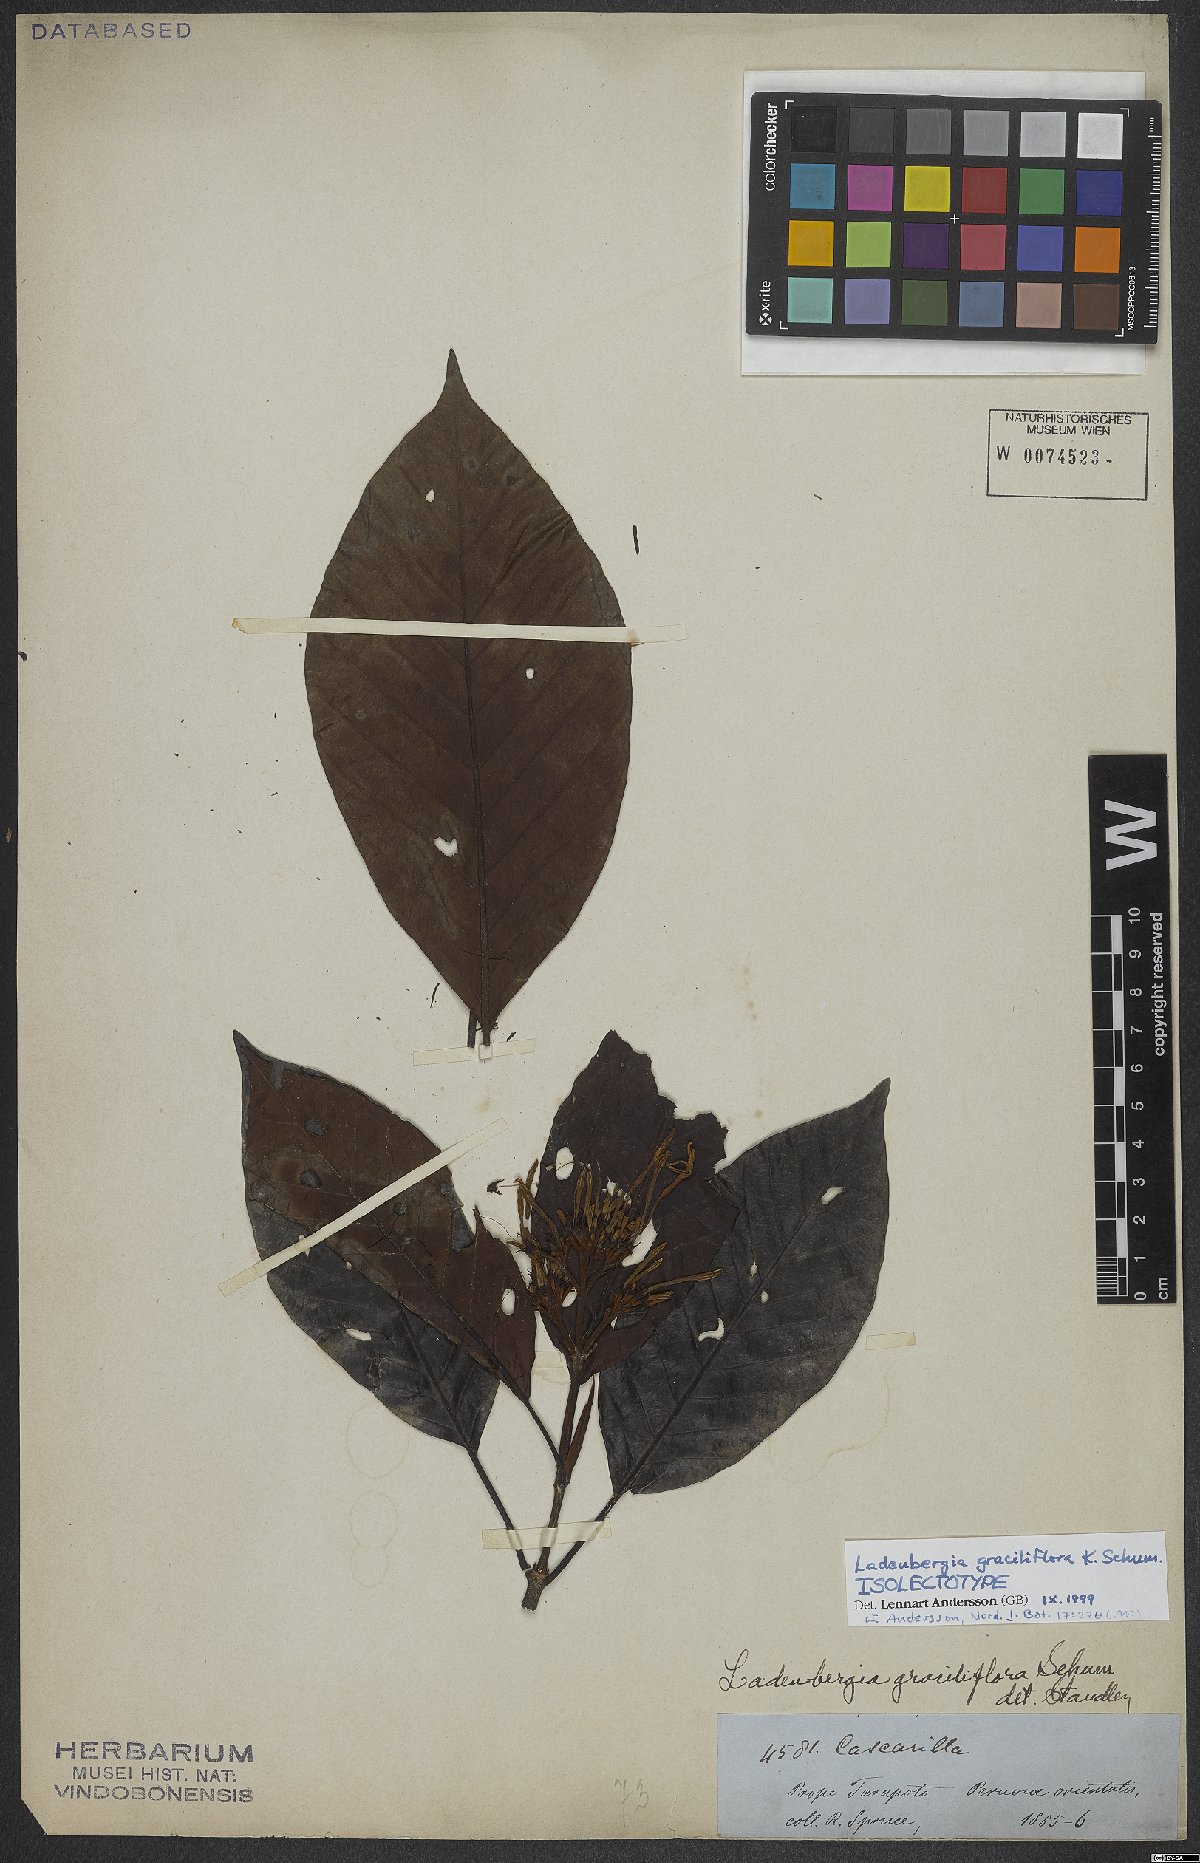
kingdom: Plantae
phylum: Tracheophyta
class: Magnoliopsida
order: Gentianales
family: Rubiaceae
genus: Ladenbergia
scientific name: Ladenbergia graciliflora
